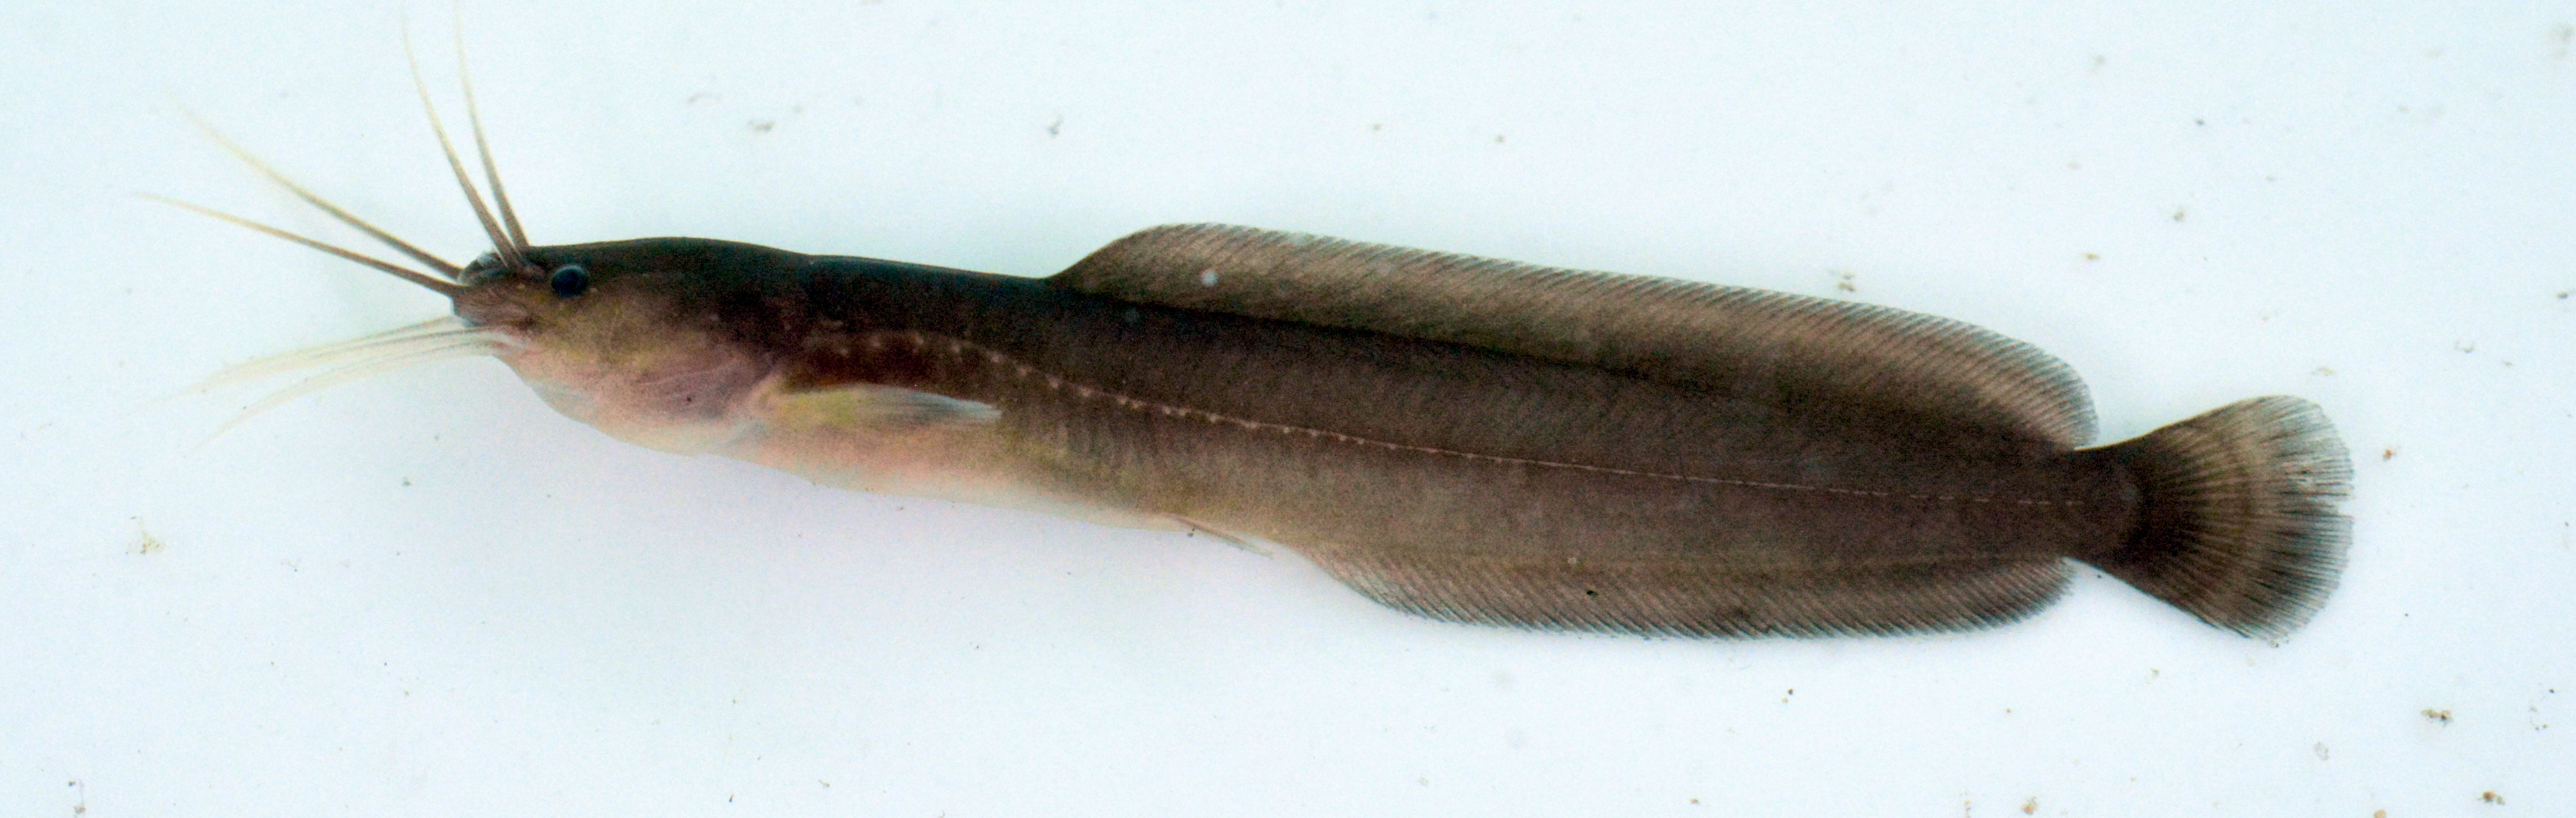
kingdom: Animalia
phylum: Chordata
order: Siluriformes
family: Clariidae
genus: Clarias
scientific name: Clarias liocephalus
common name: Smooth-head catfish
